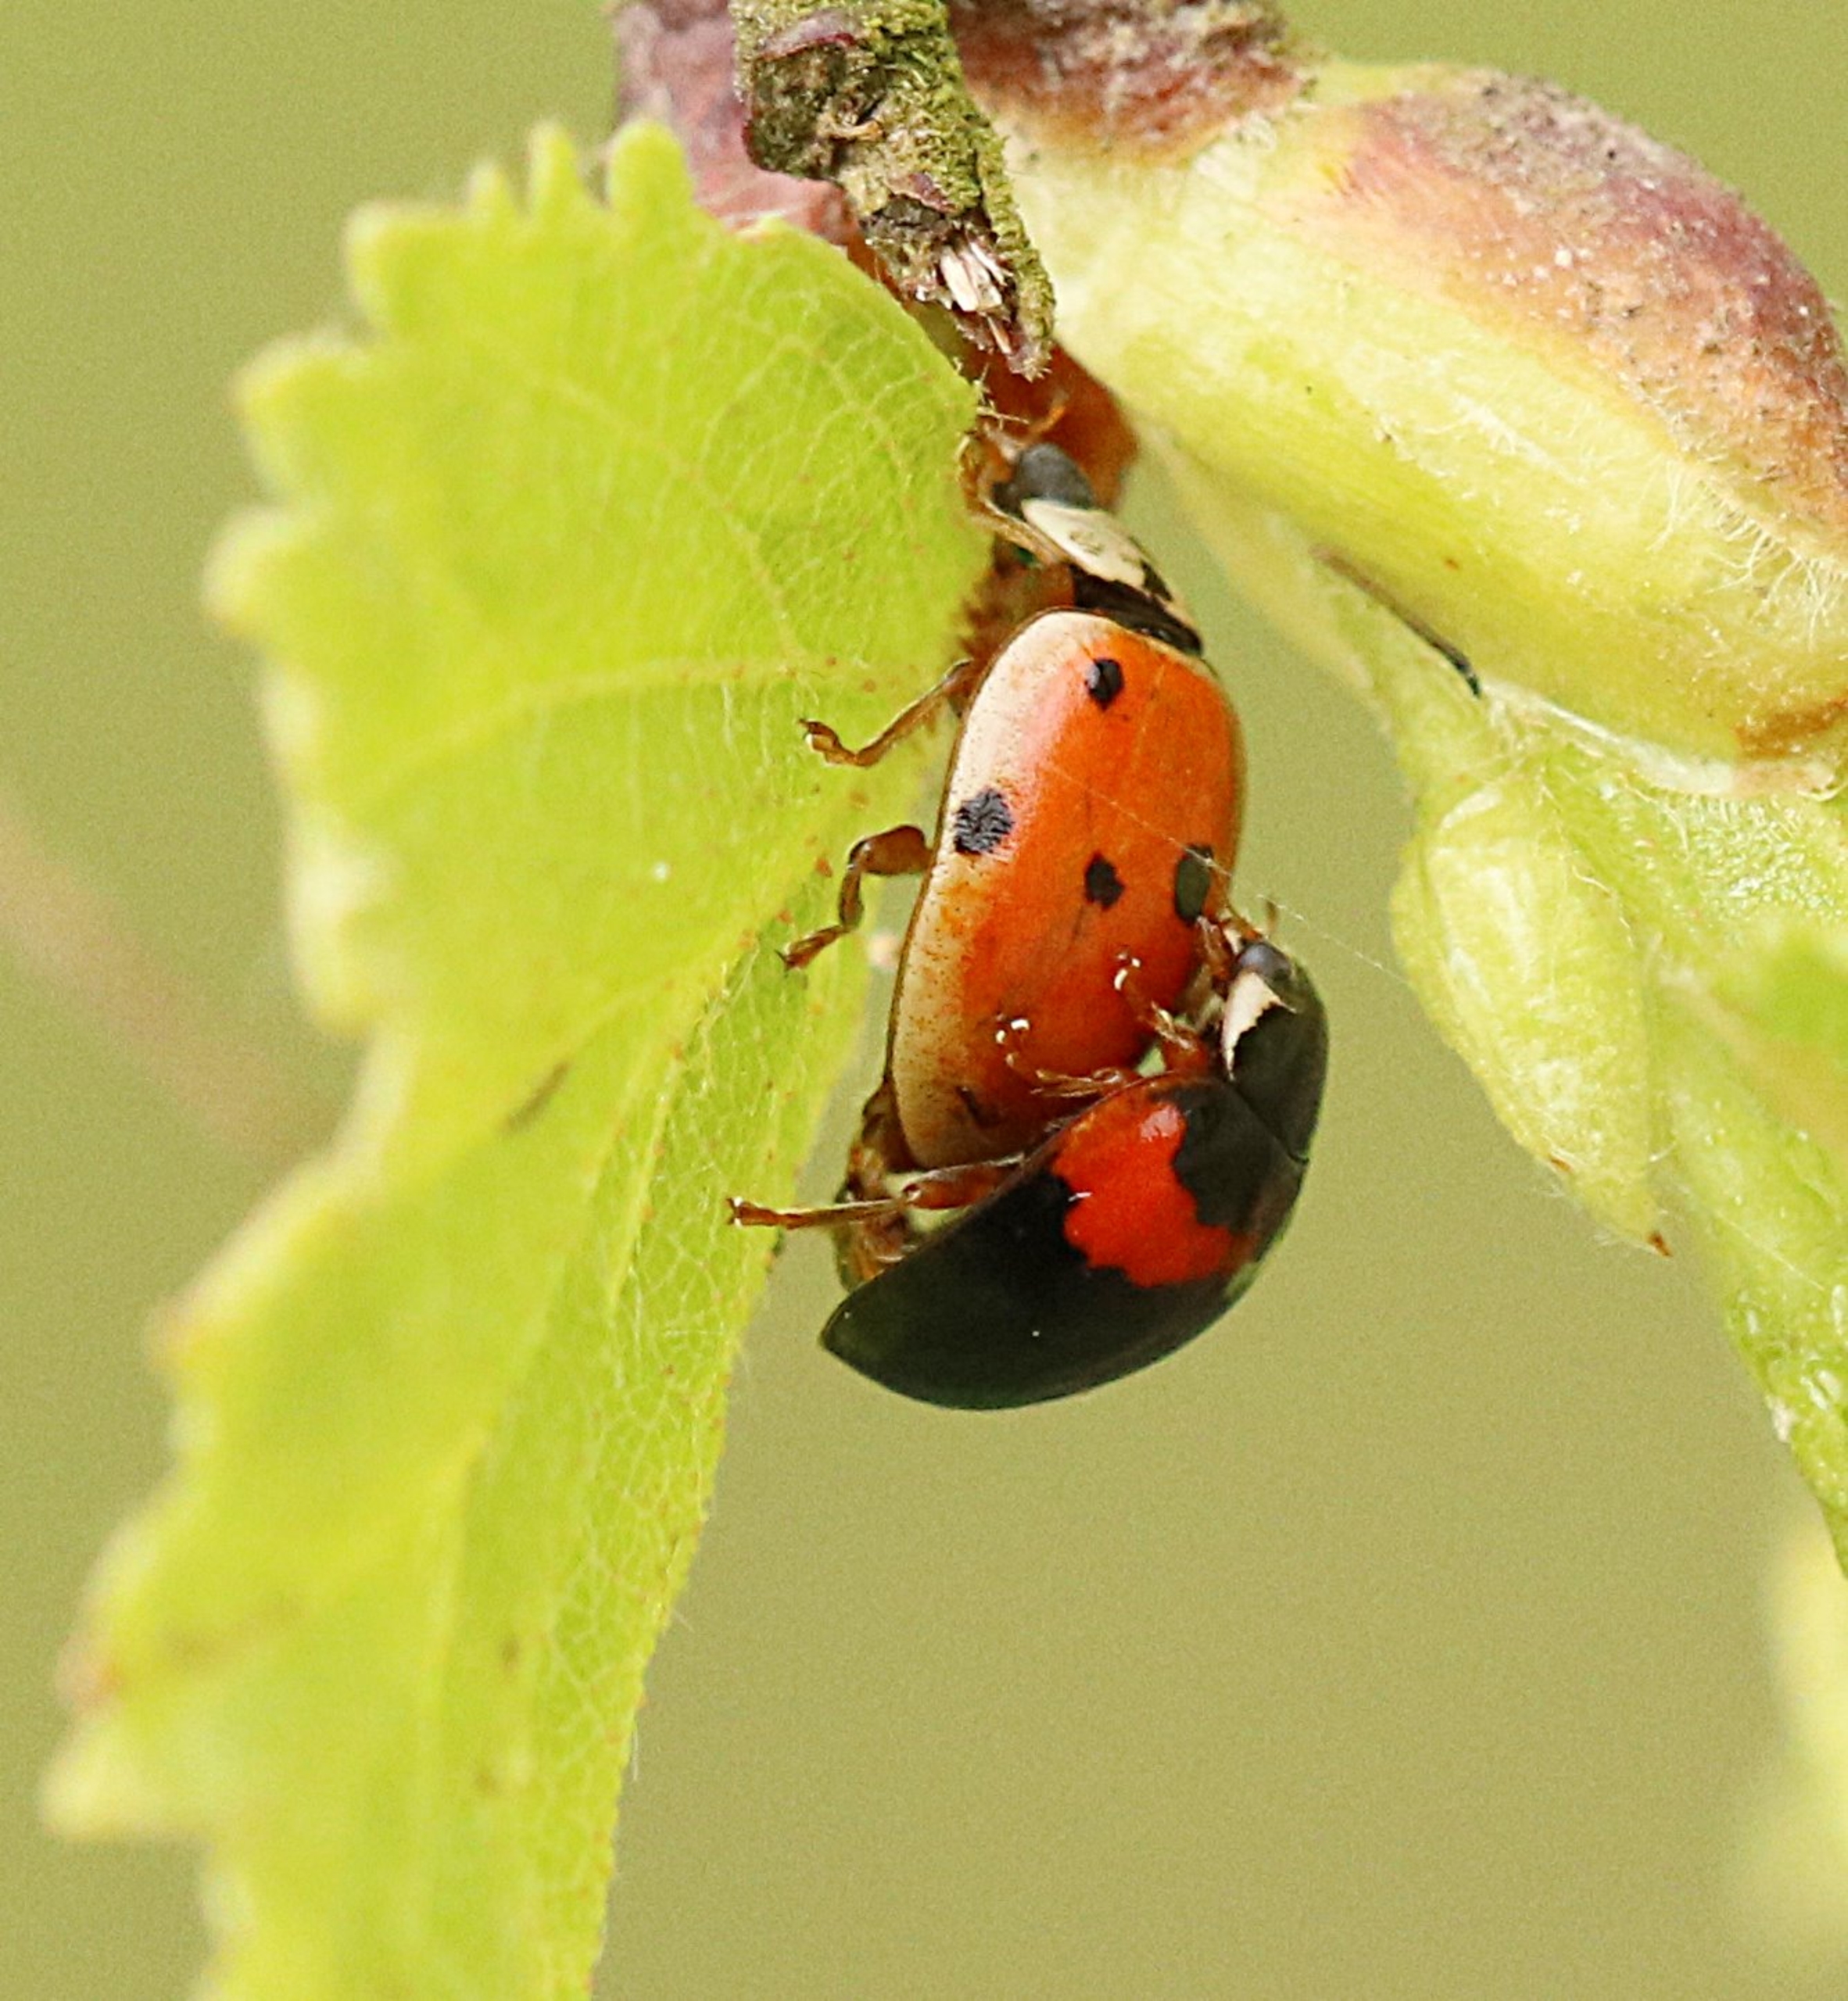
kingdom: Animalia
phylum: Arthropoda
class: Insecta
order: Coleoptera
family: Coccinellidae
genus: Adalia
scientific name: Adalia decempunctata
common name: Tiplettet mariehøne
